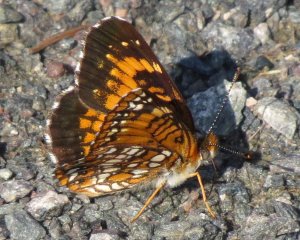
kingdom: Animalia
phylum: Arthropoda
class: Insecta
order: Lepidoptera
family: Nymphalidae
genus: Chlosyne
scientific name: Chlosyne harrisii
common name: Harris's Checkerspot
